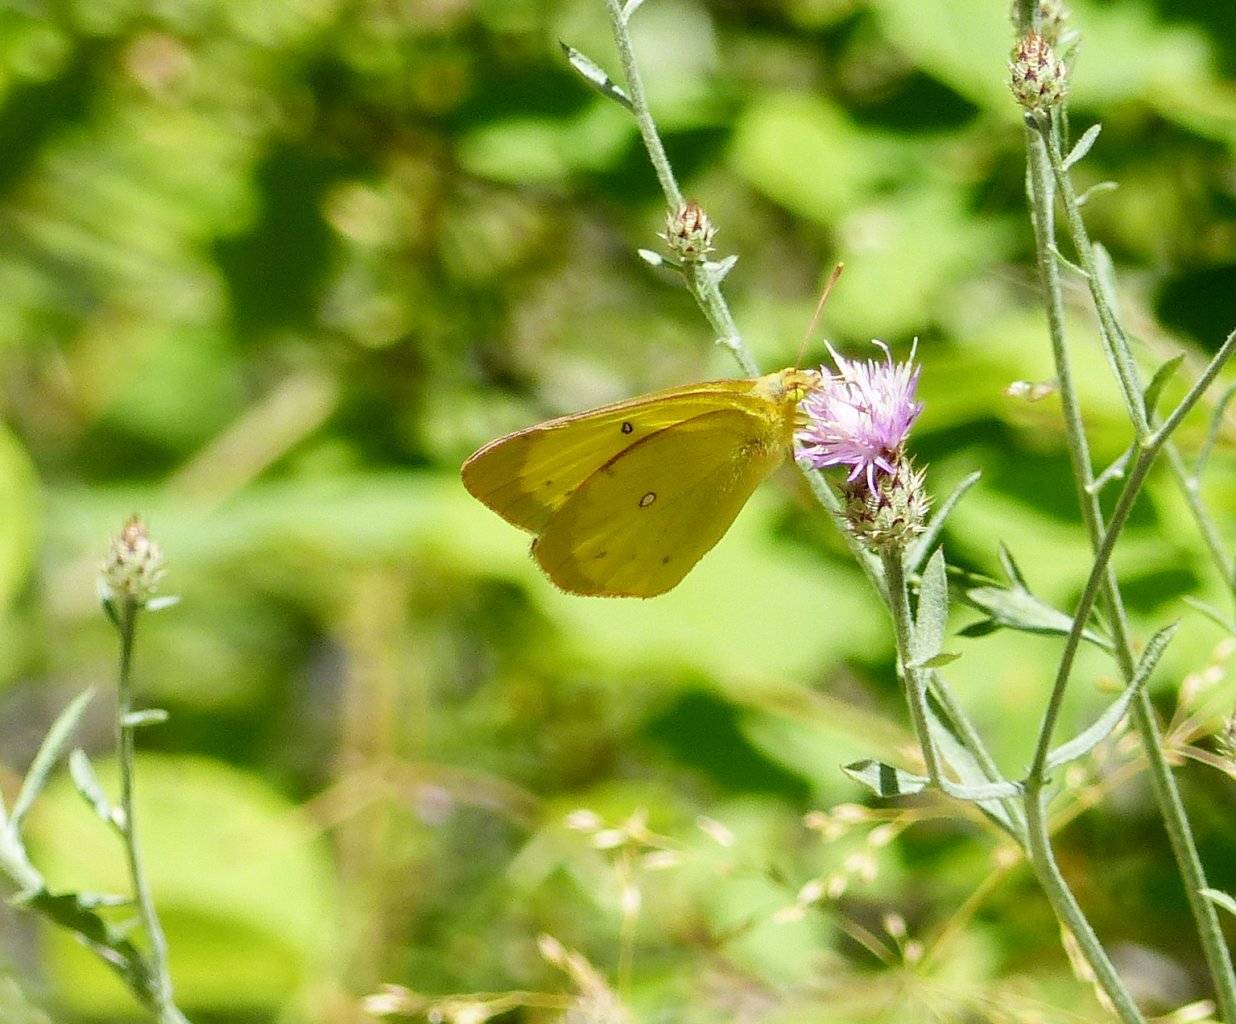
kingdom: Animalia
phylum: Arthropoda
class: Insecta
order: Lepidoptera
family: Pieridae
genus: Colias
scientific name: Colias interior
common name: Pink-edged Sulphur
